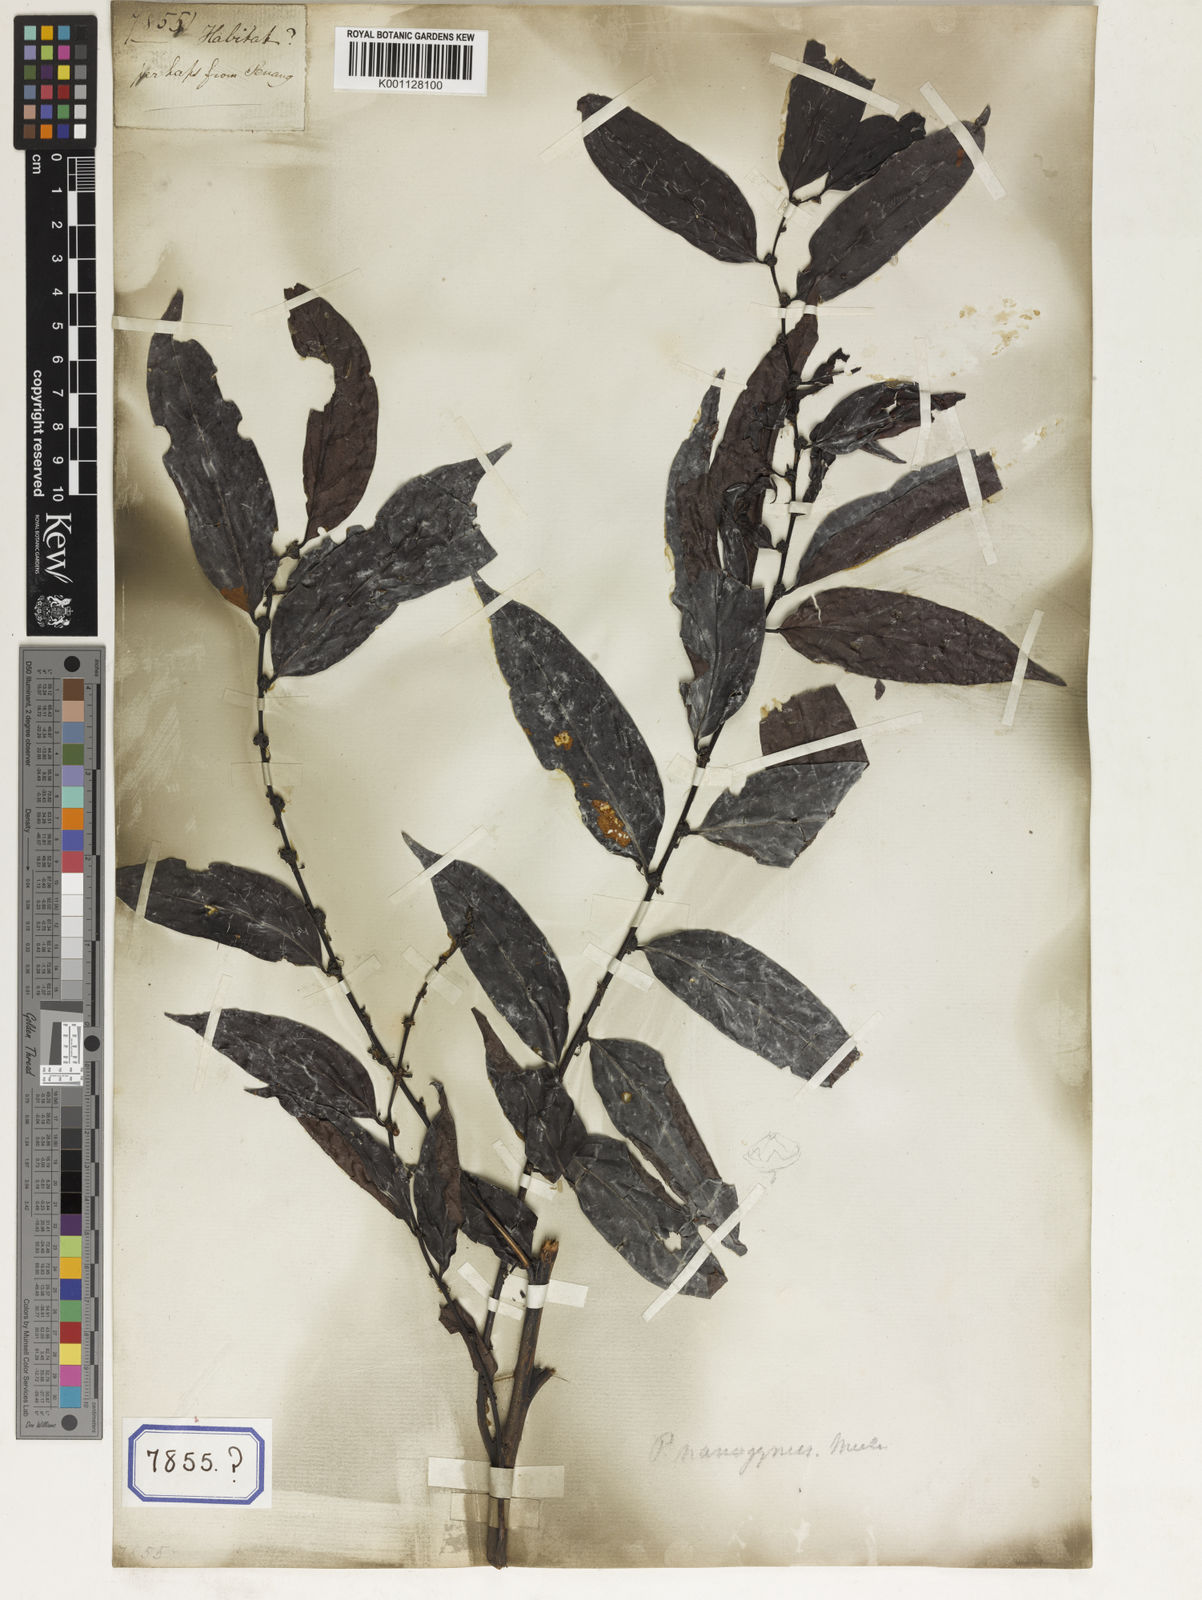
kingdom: Plantae
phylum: Tracheophyta
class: Magnoliopsida
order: Malpighiales
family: Euphorbiaceae
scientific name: Euphorbiaceae
